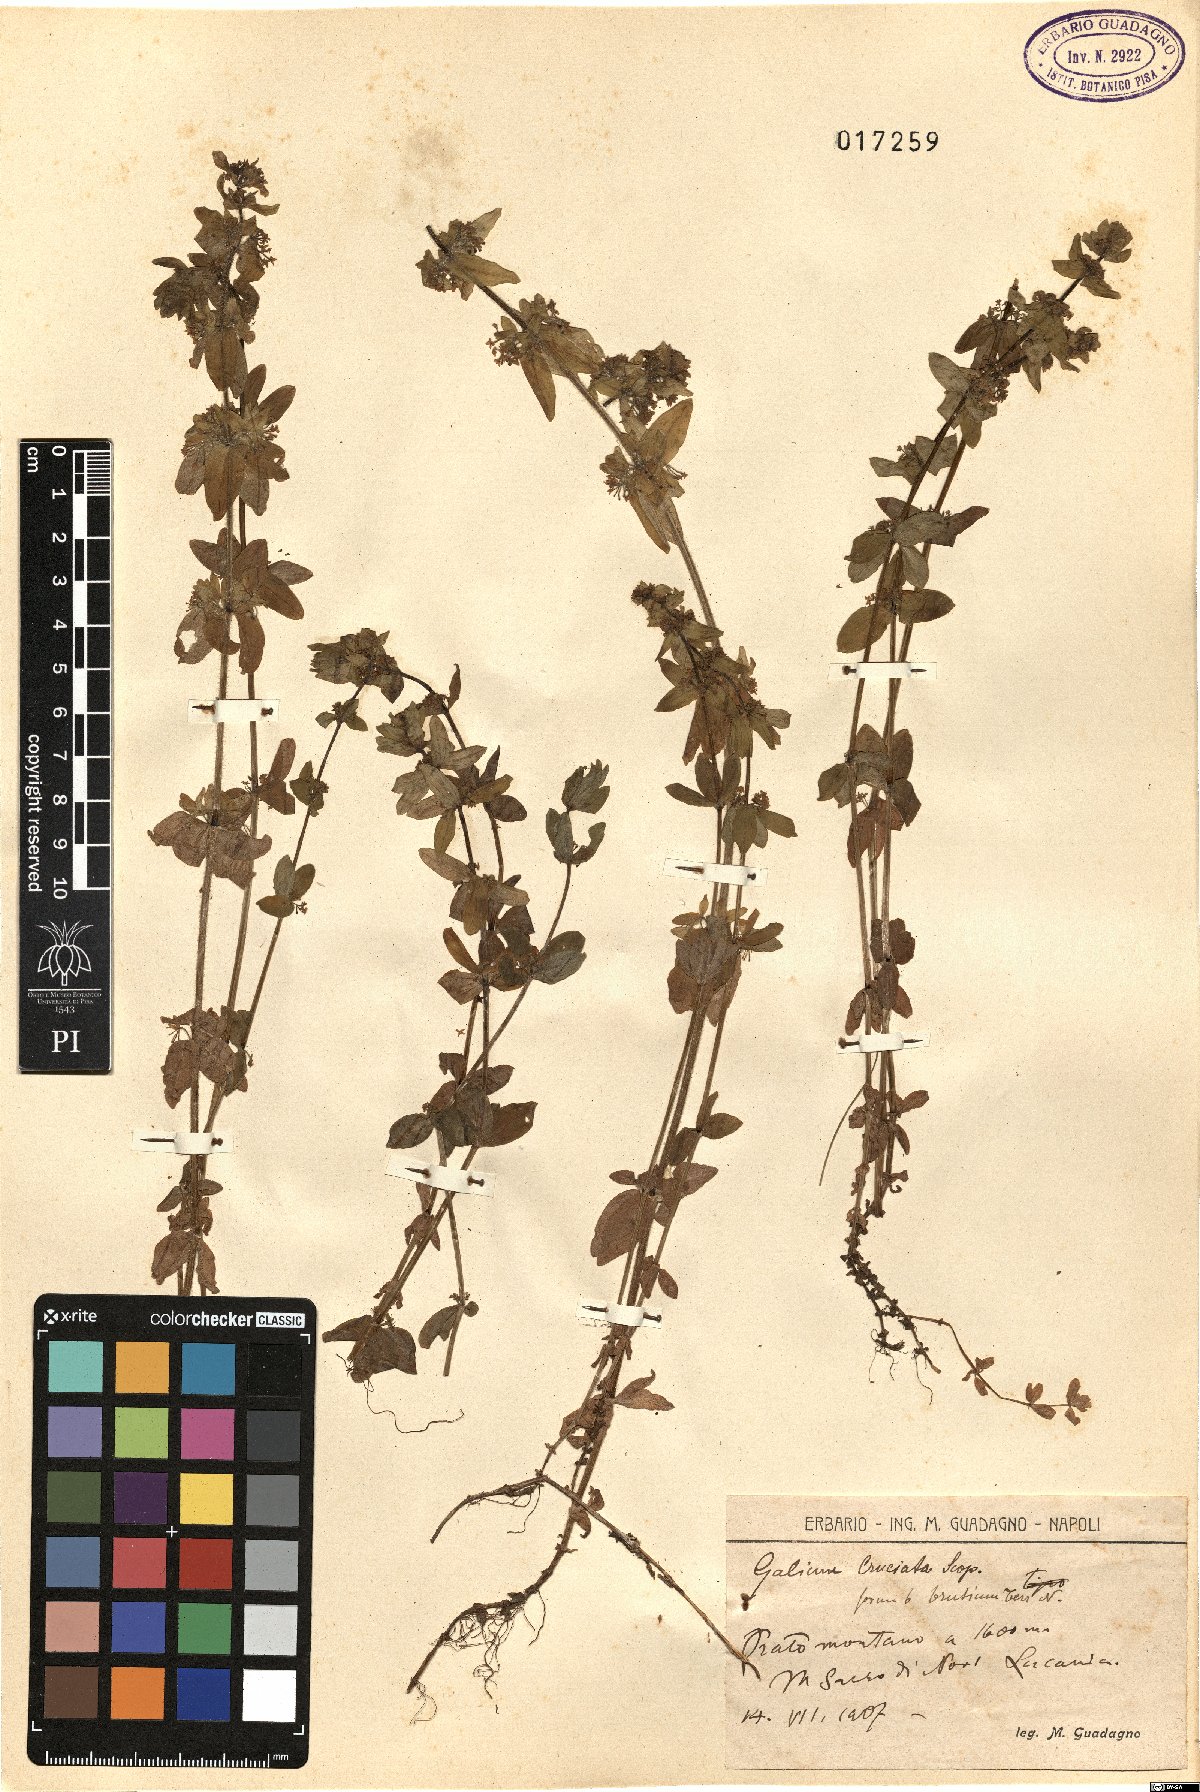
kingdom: Plantae
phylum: Tracheophyta
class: Magnoliopsida
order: Gentianales
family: Rubiaceae
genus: Cruciata
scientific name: Cruciata laevipes
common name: Crosswort
